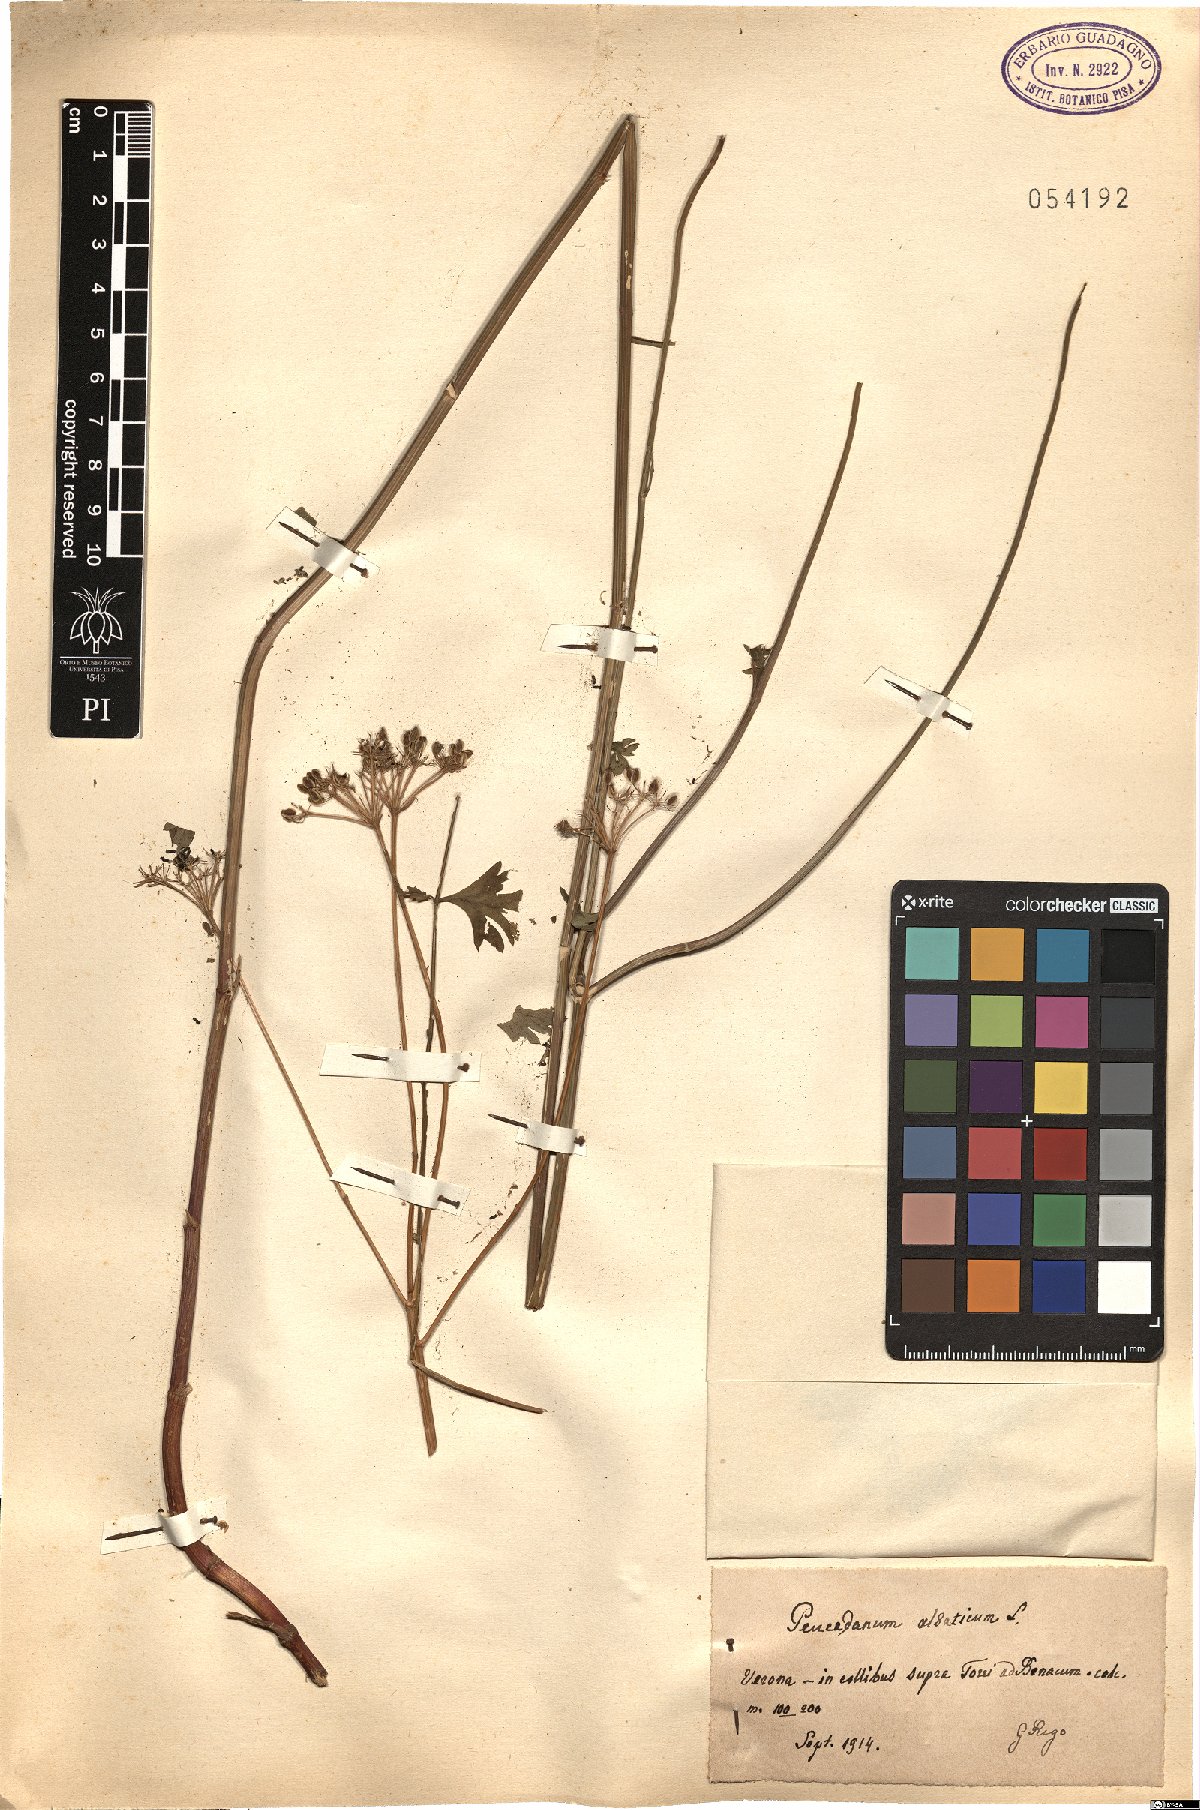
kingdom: Plantae
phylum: Tracheophyta
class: Magnoliopsida
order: Apiales
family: Apiaceae
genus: Xanthoselinum
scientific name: Xanthoselinum alsaticum
